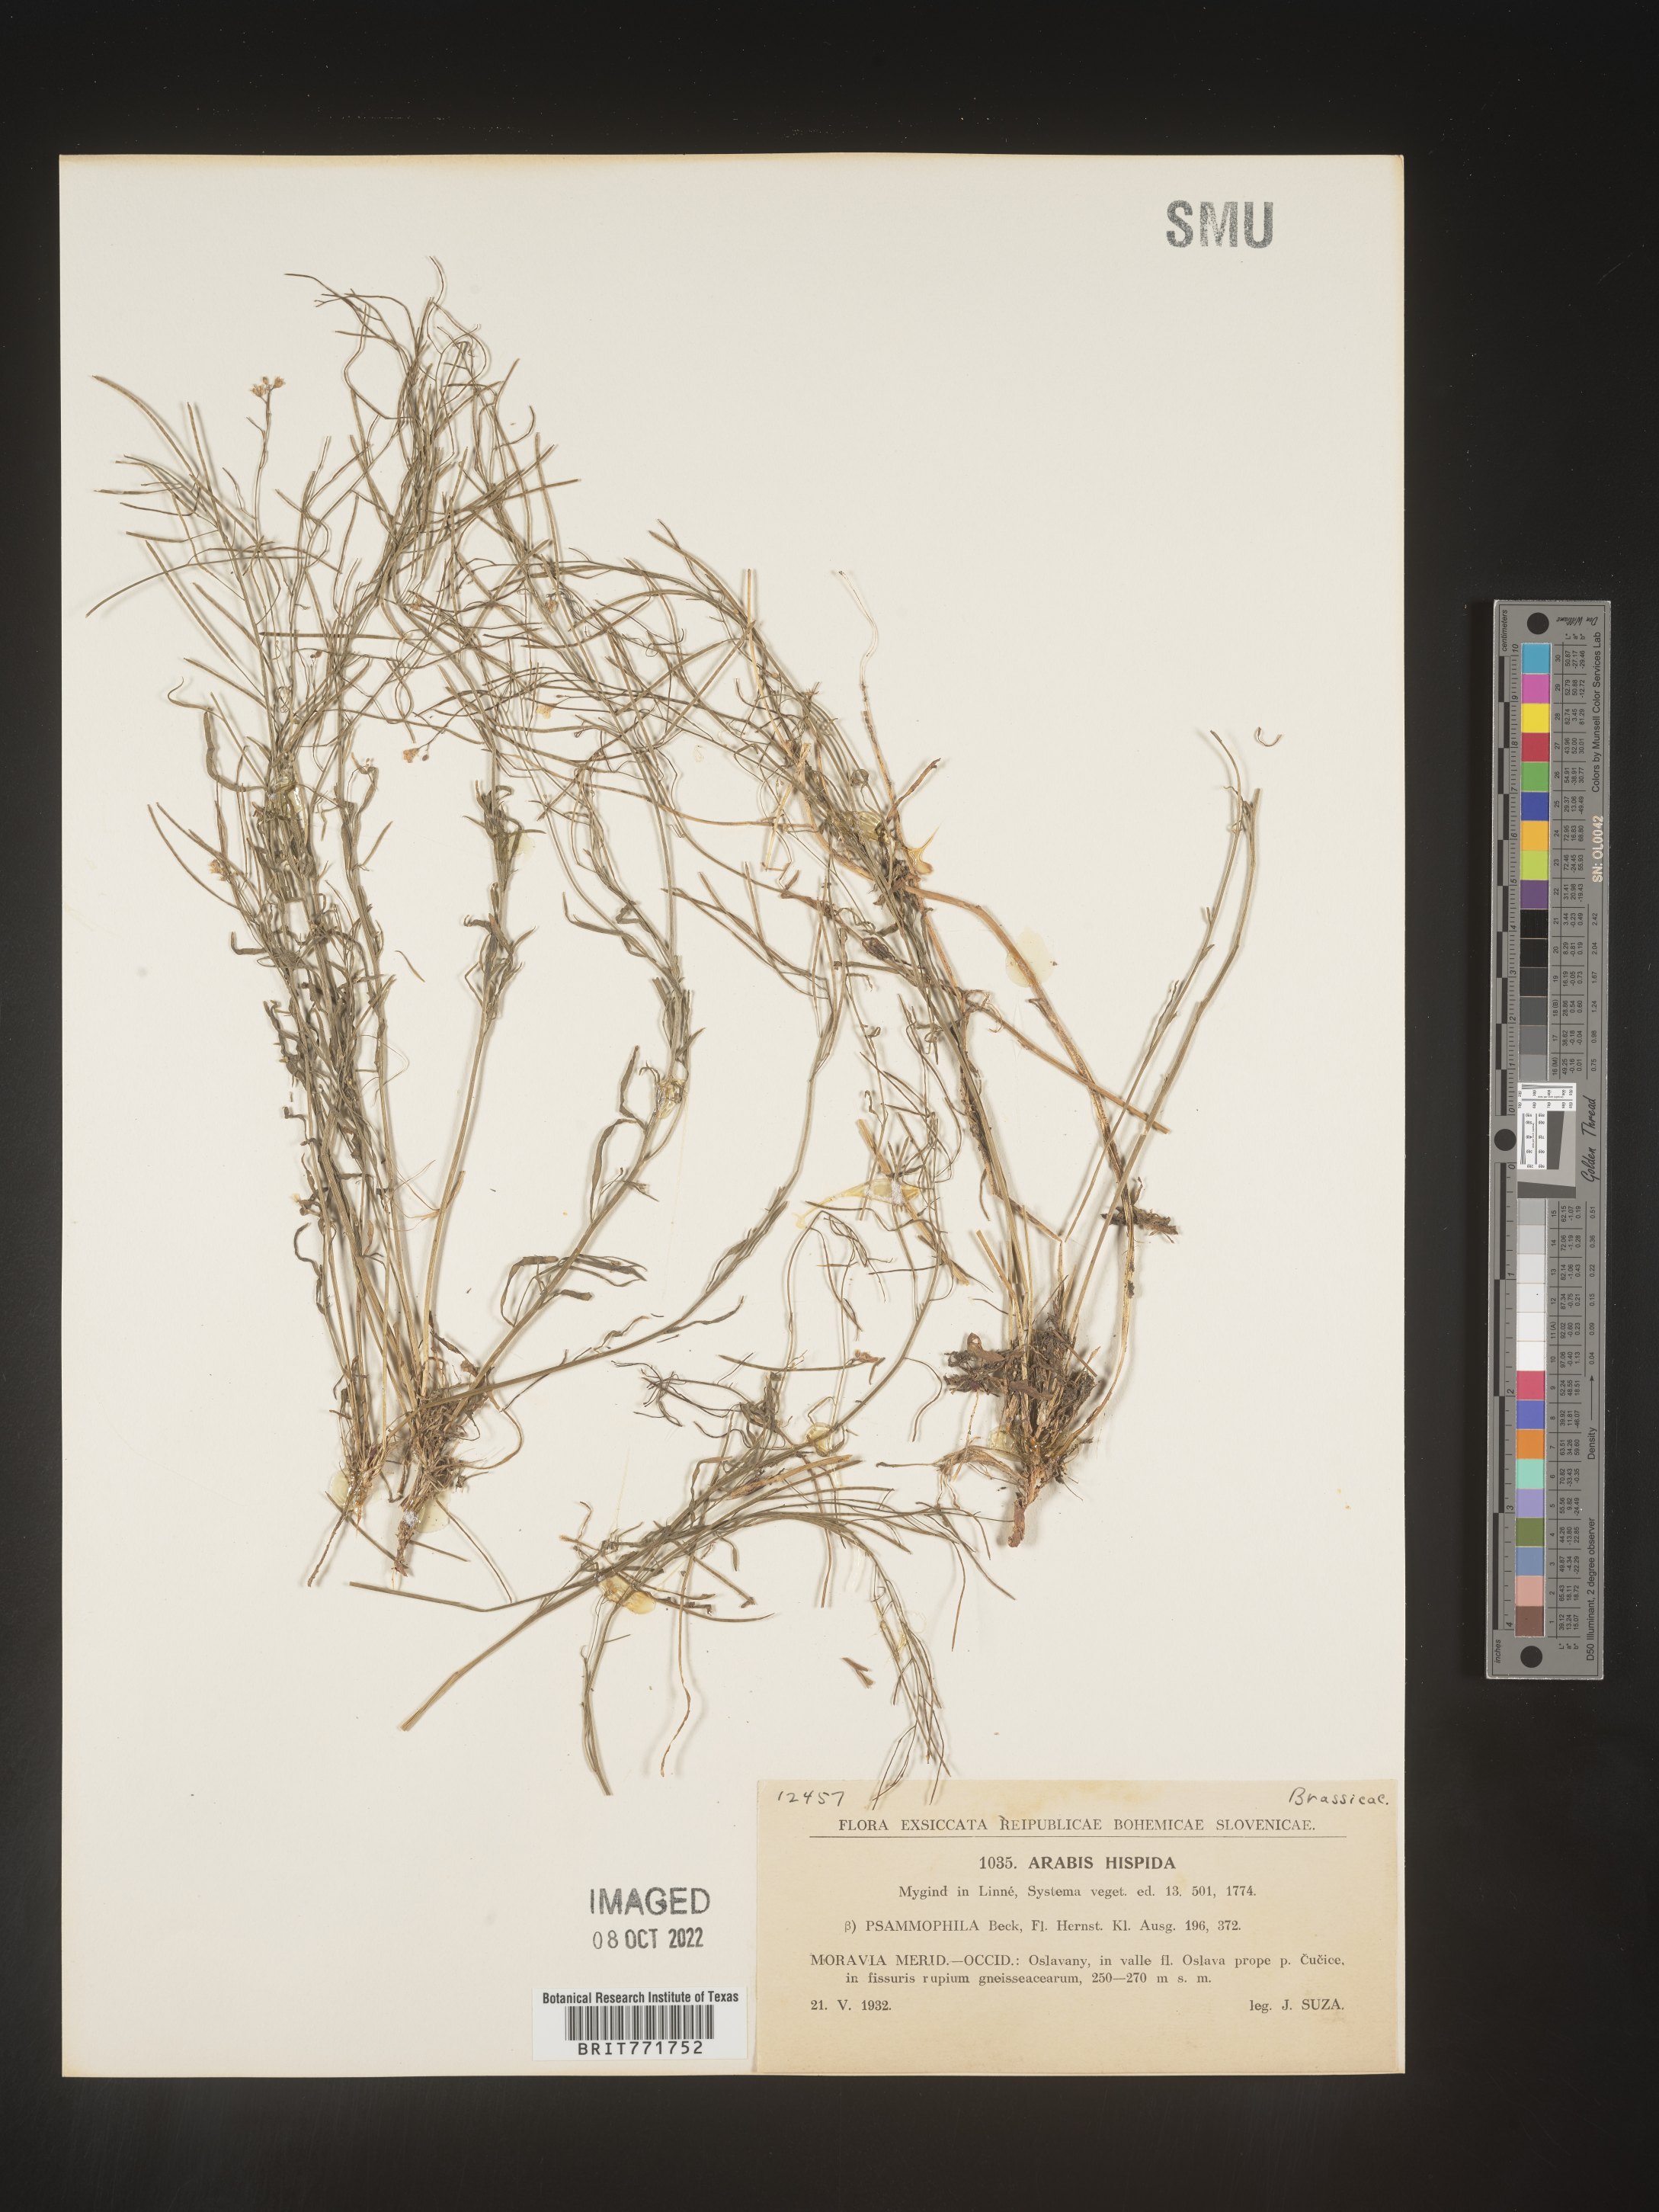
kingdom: Plantae
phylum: Tracheophyta
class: Magnoliopsida
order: Brassicales
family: Brassicaceae
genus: Arabis
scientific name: Arabis
